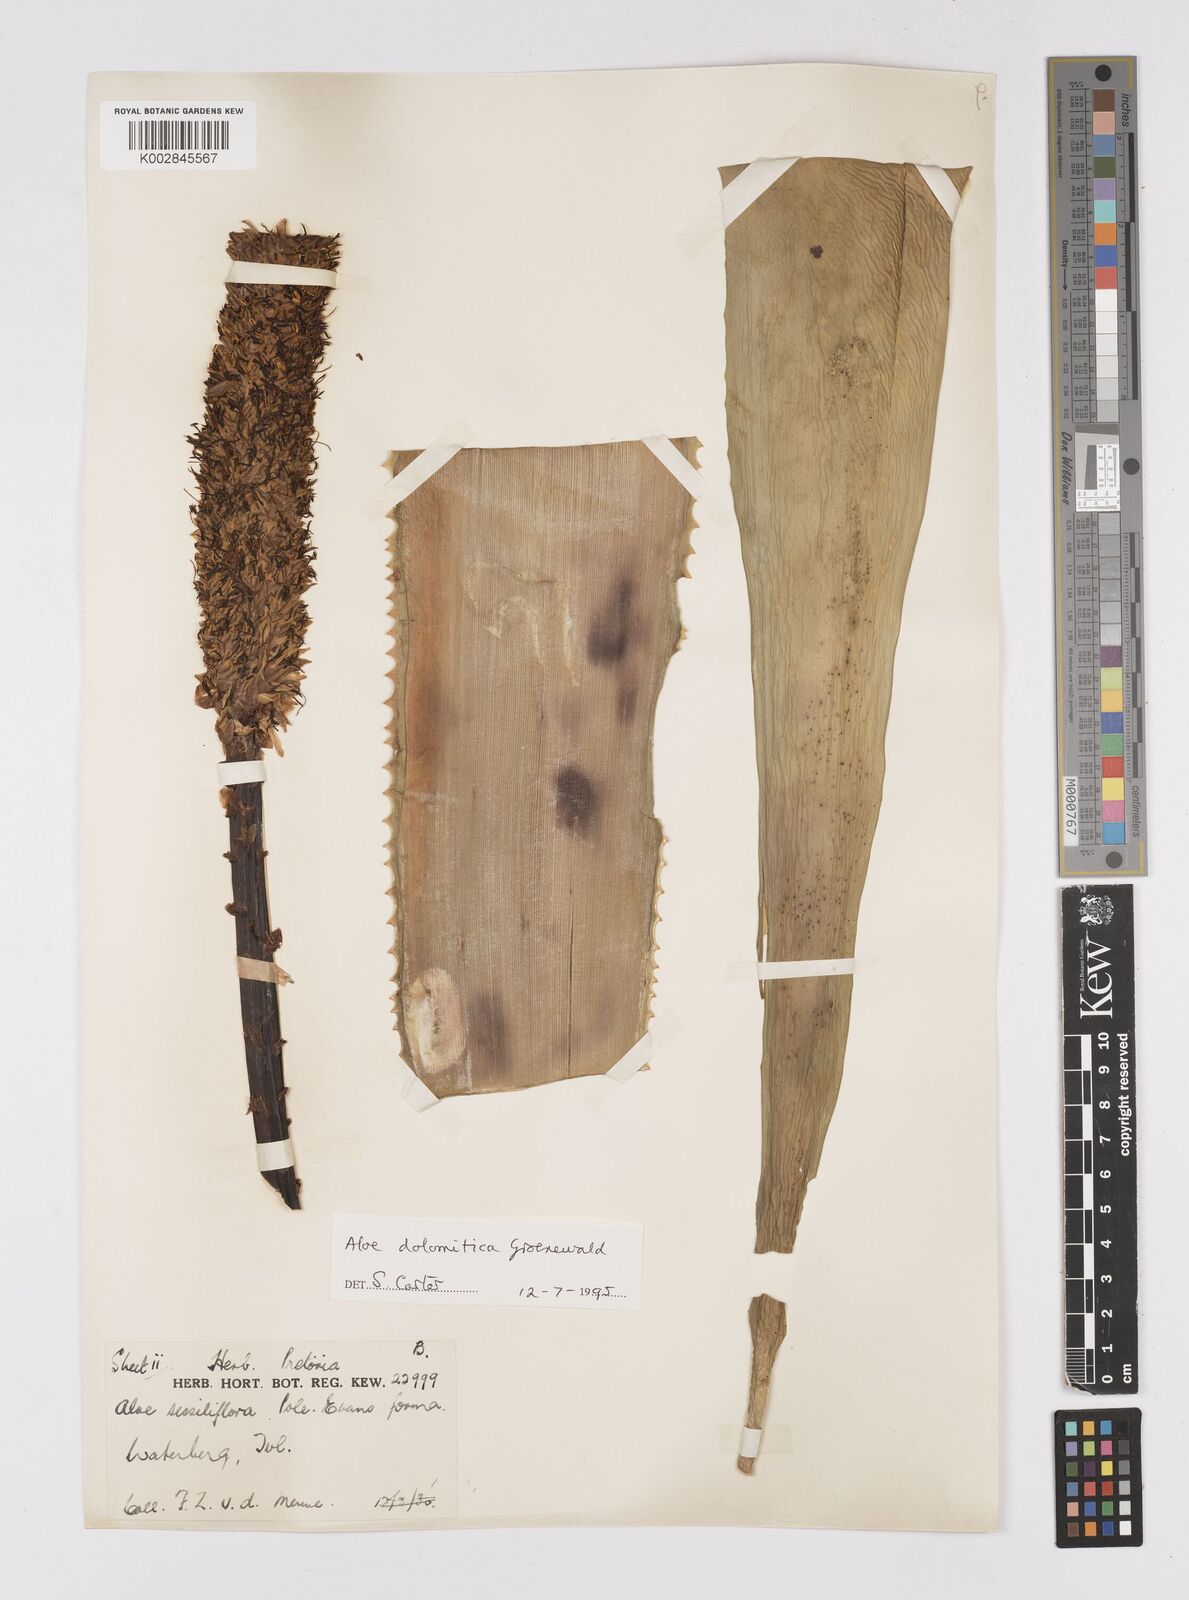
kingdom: Plantae
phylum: Tracheophyta
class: Liliopsida
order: Asparagales
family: Asphodelaceae
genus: Aloe
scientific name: Aloe vryheidensis
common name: Vryheid aloe
